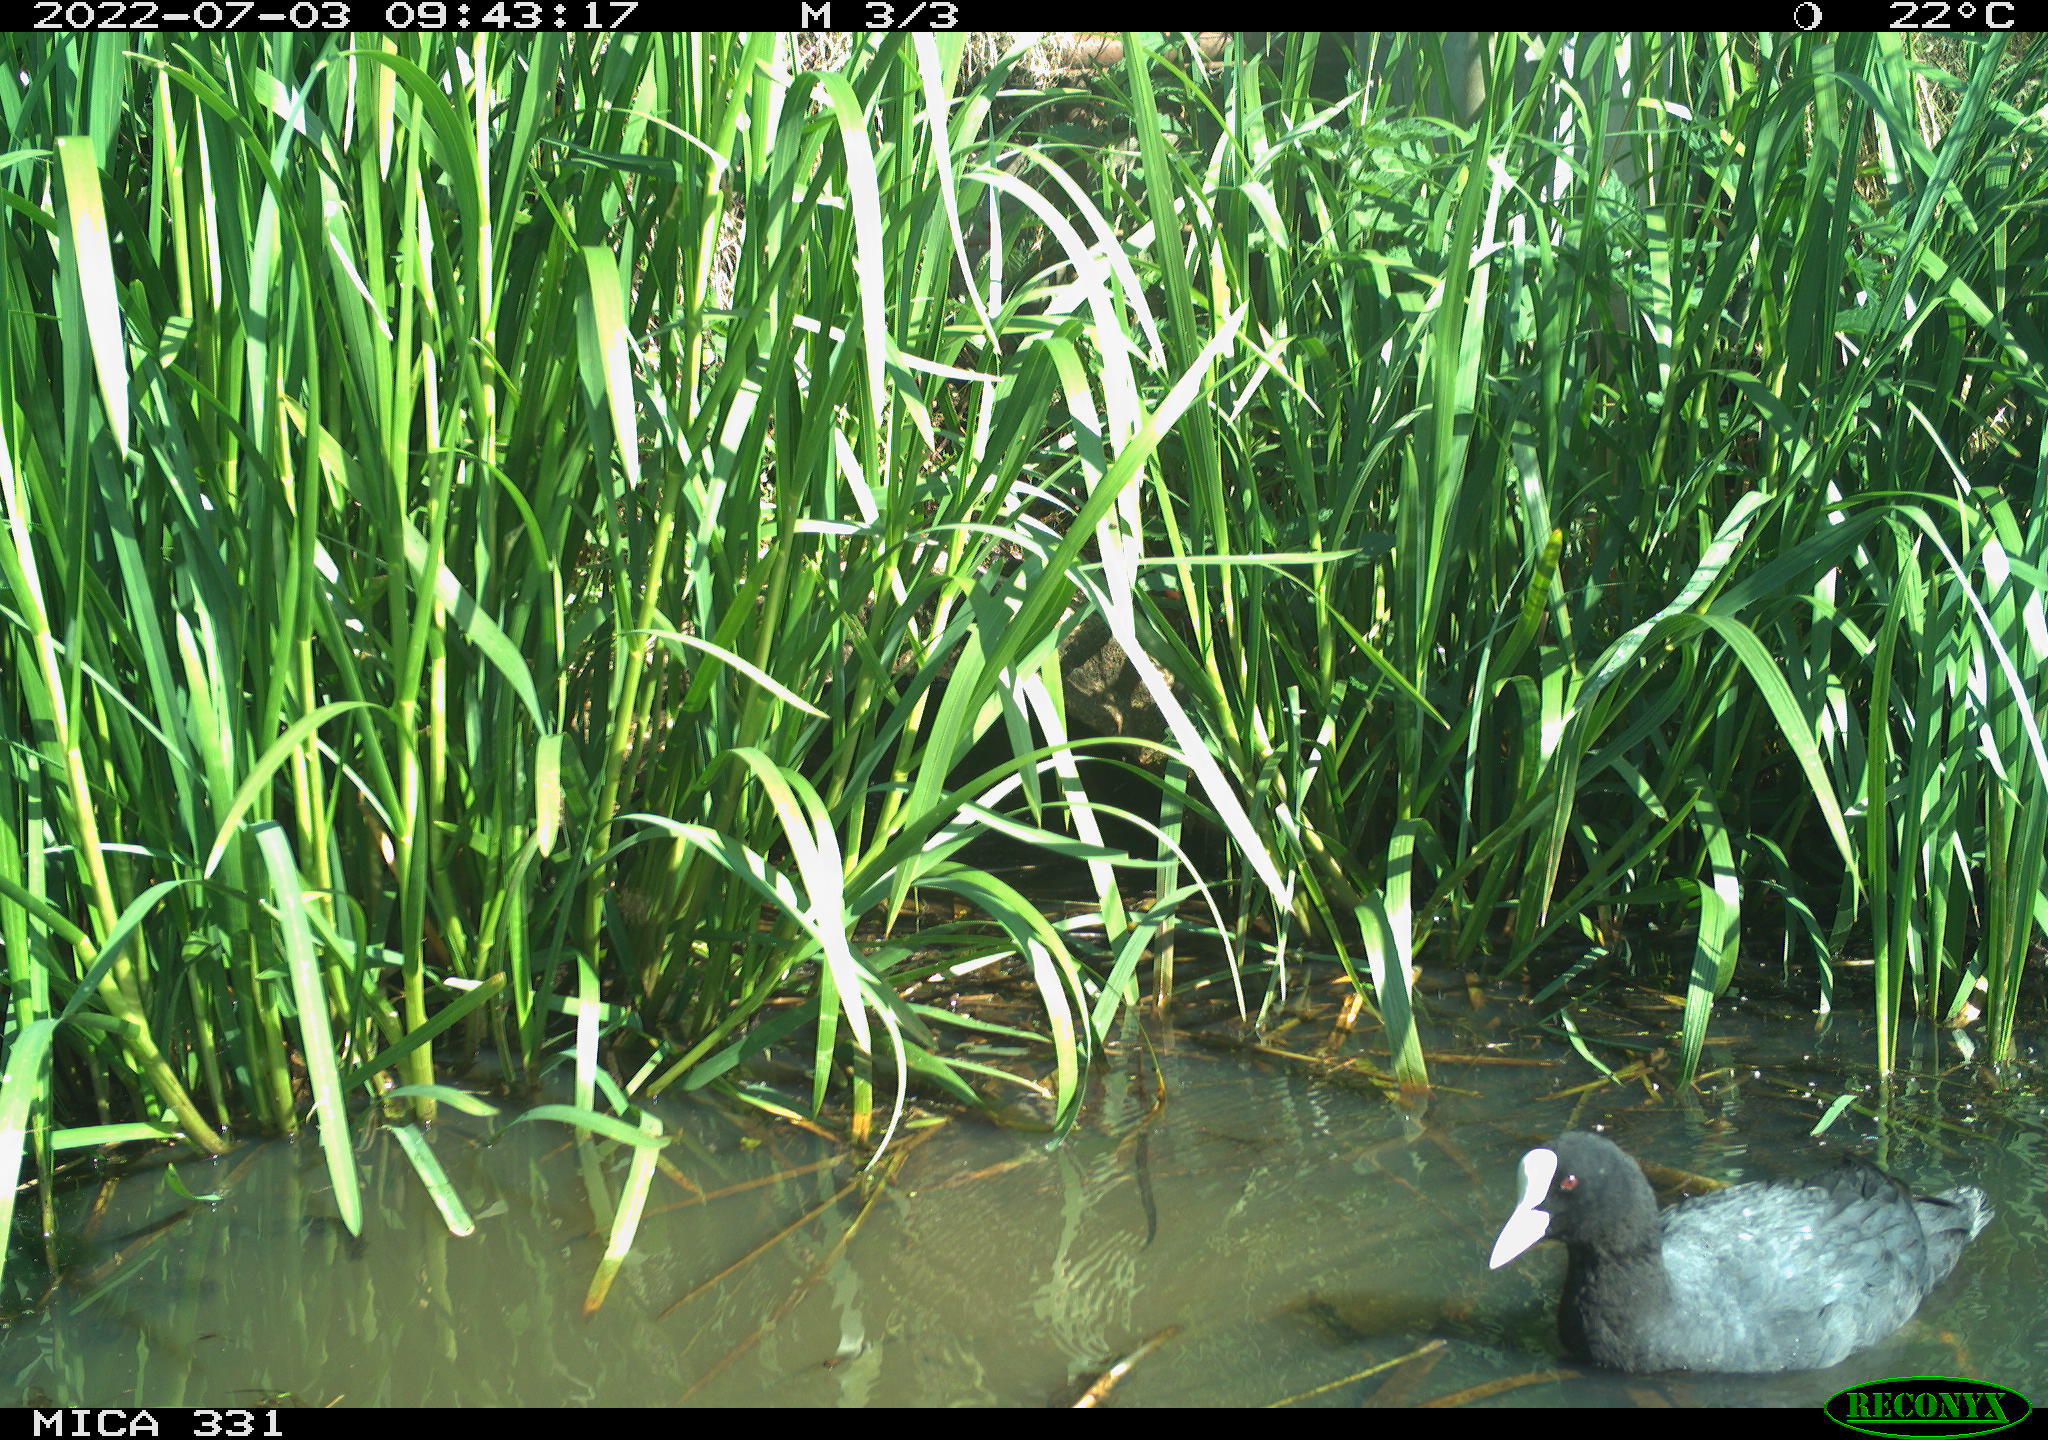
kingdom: Animalia
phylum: Chordata
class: Aves
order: Gruiformes
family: Rallidae
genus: Fulica
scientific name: Fulica atra
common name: Eurasian coot
